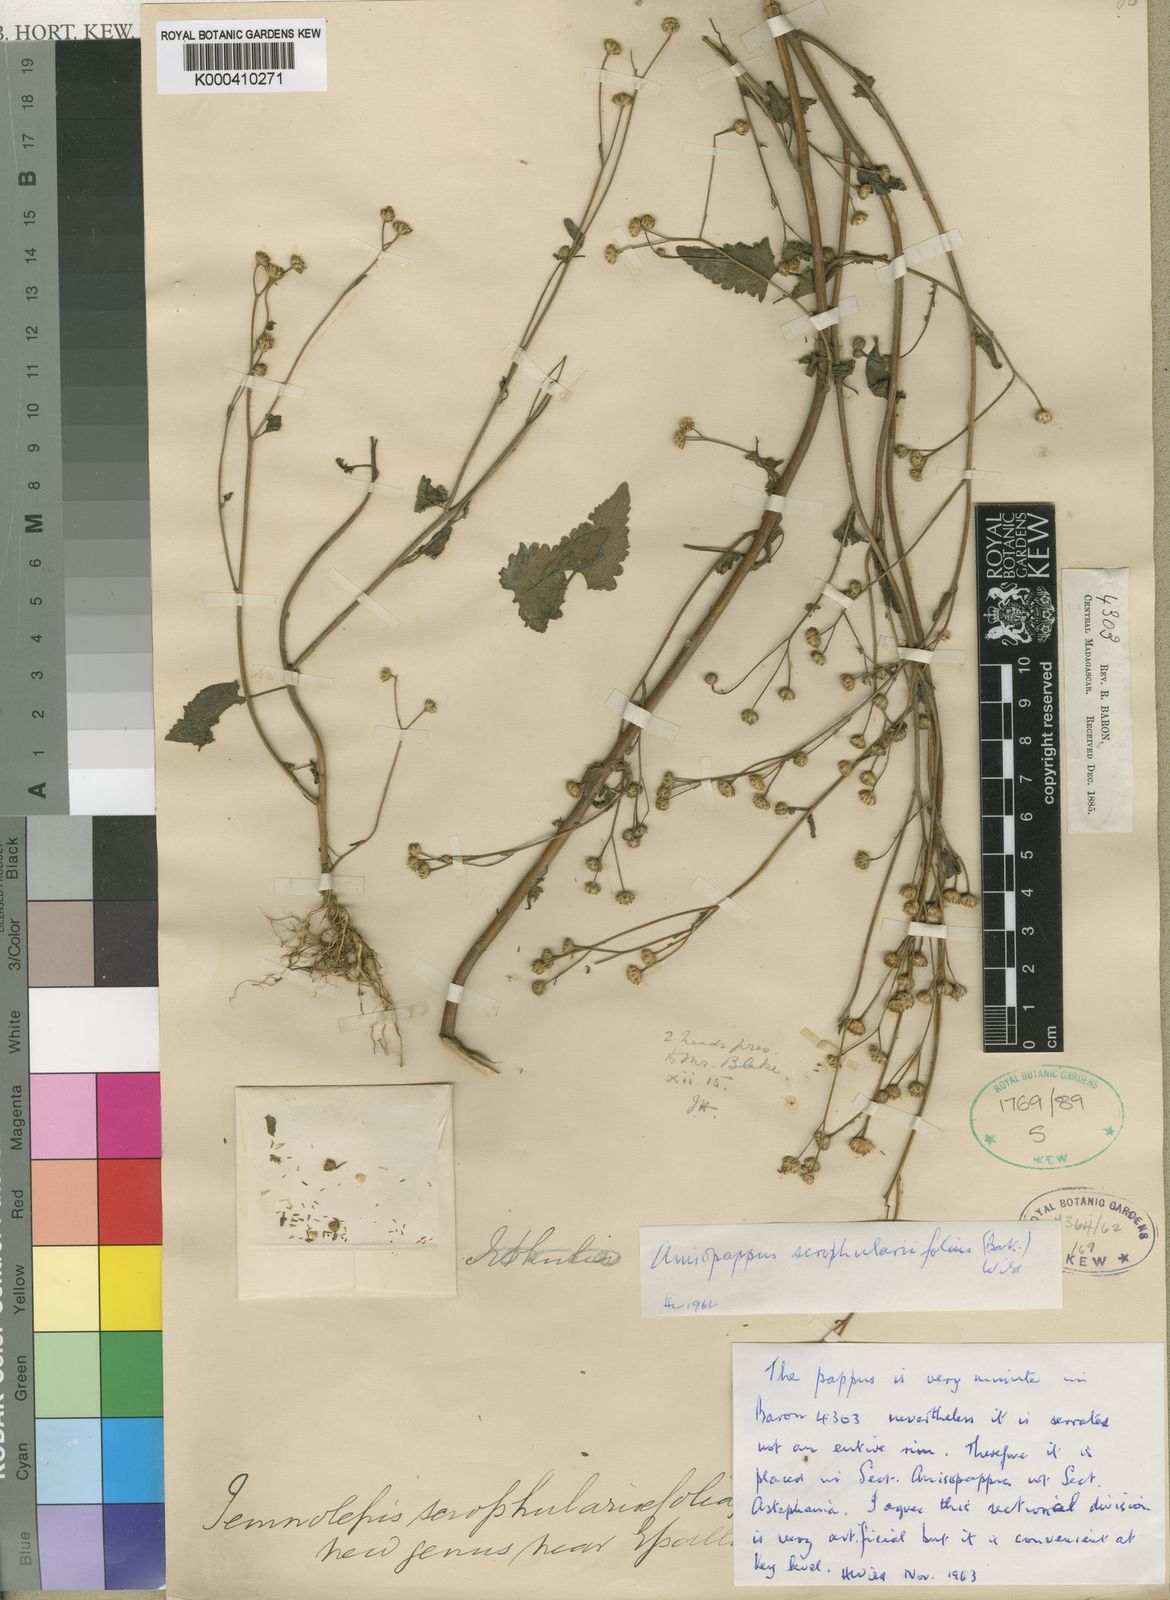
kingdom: Plantae
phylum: Tracheophyta
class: Magnoliopsida
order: Asterales
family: Asteraceae
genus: Anisopappus
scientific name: Anisopappus scrophulariifolius
